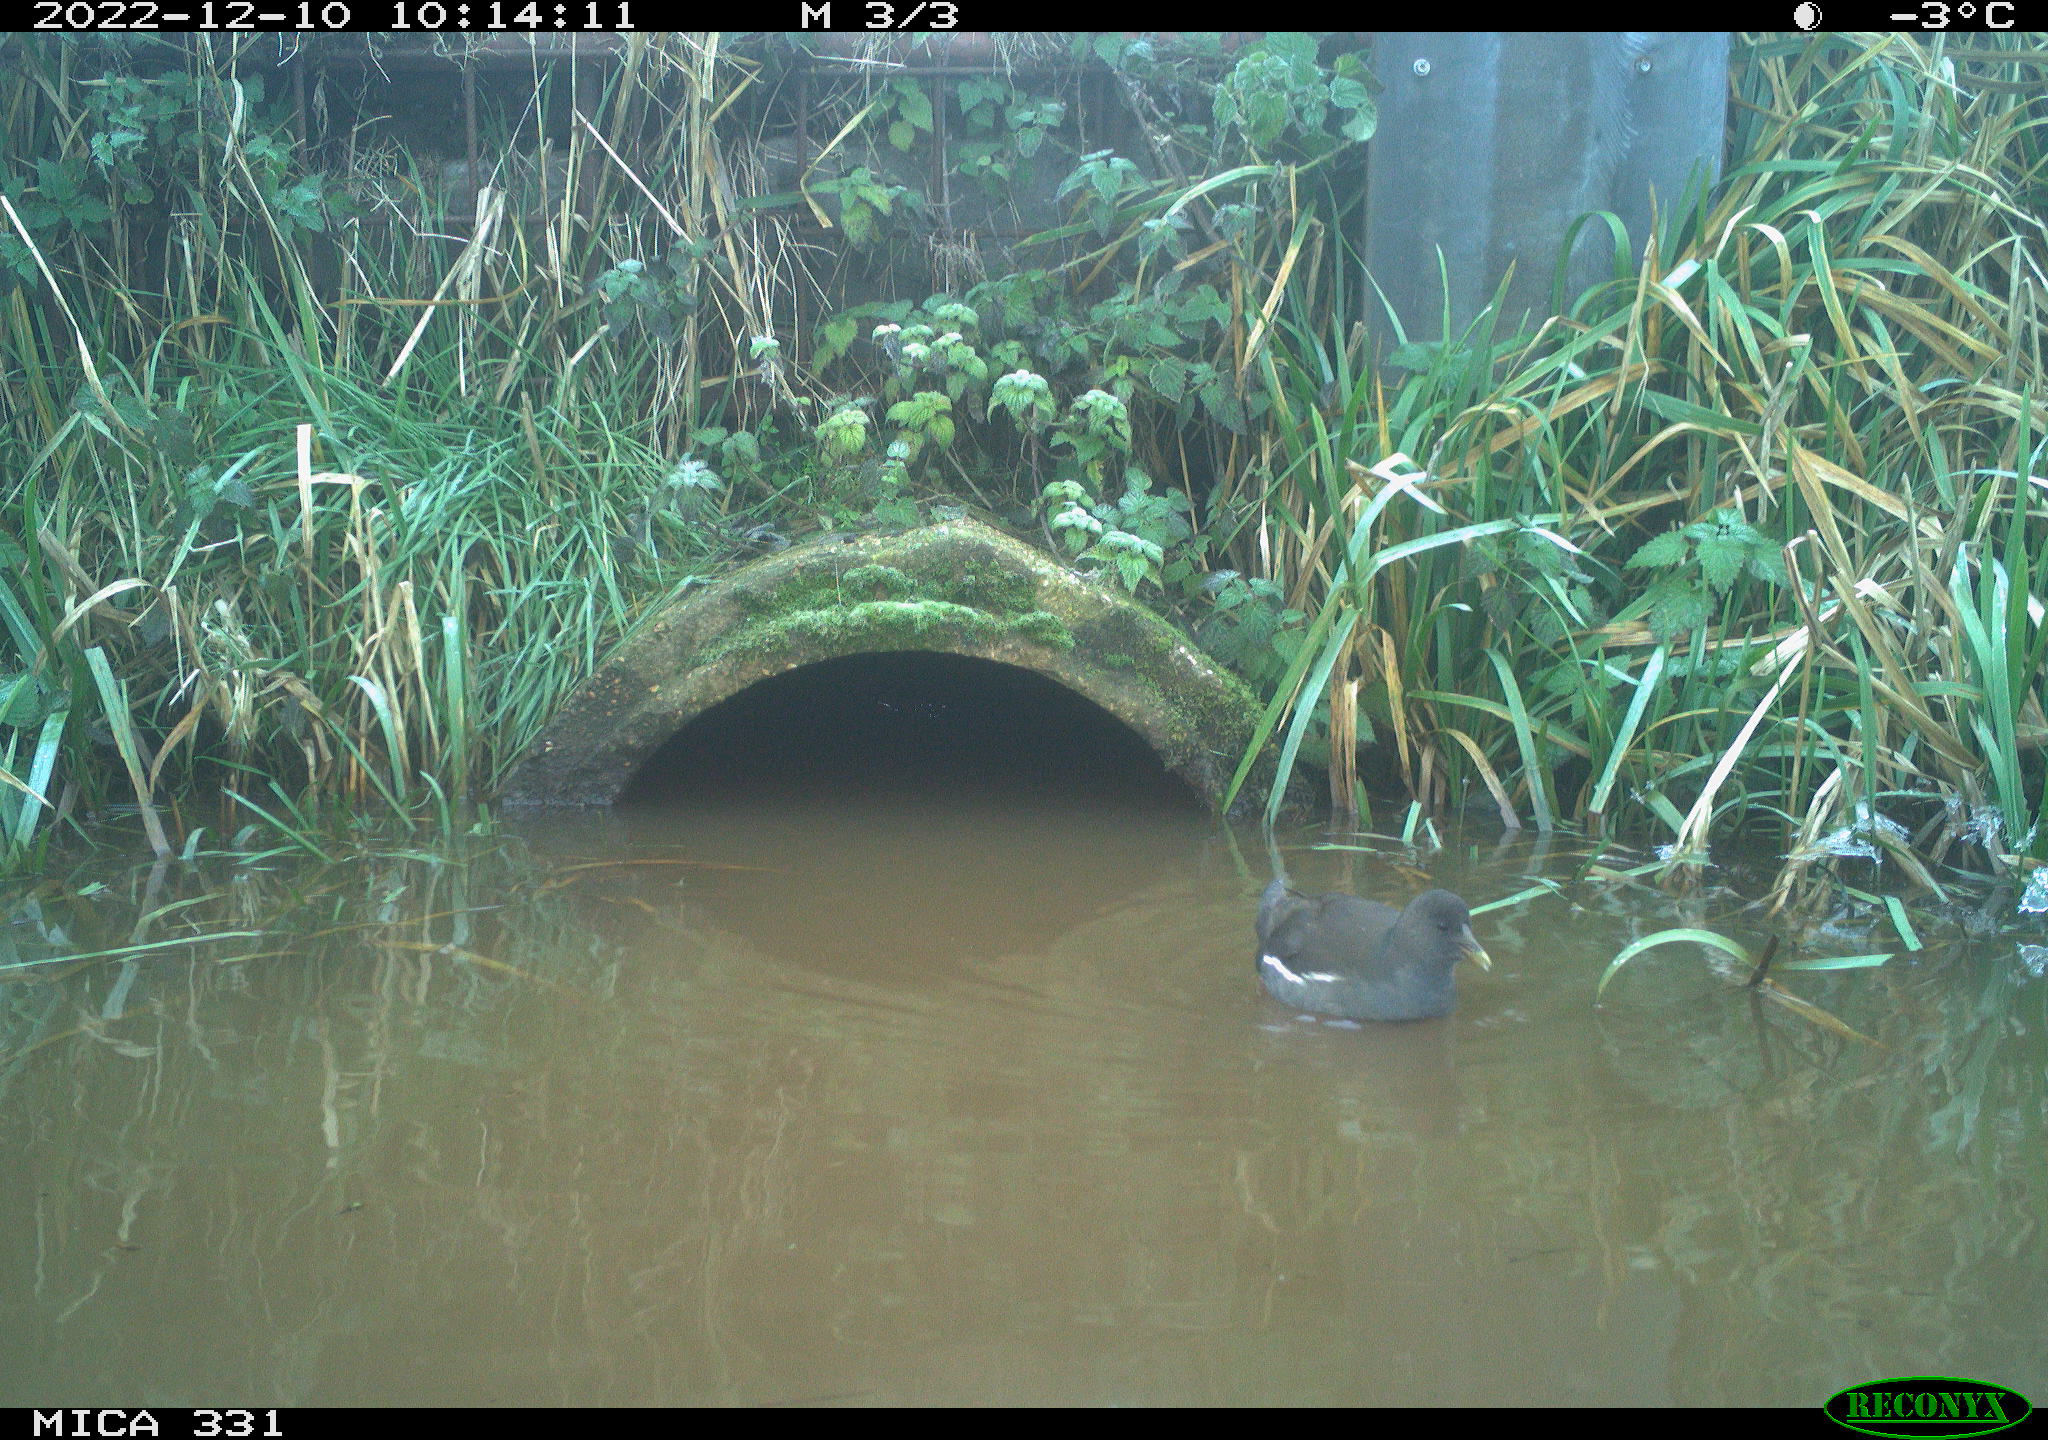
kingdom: Animalia
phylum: Chordata
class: Aves
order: Gruiformes
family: Rallidae
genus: Gallinula
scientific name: Gallinula chloropus
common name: Common moorhen
